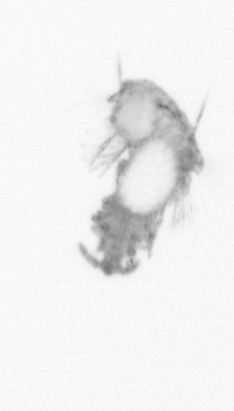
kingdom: Animalia
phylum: Annelida
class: Polychaeta
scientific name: Polychaeta
